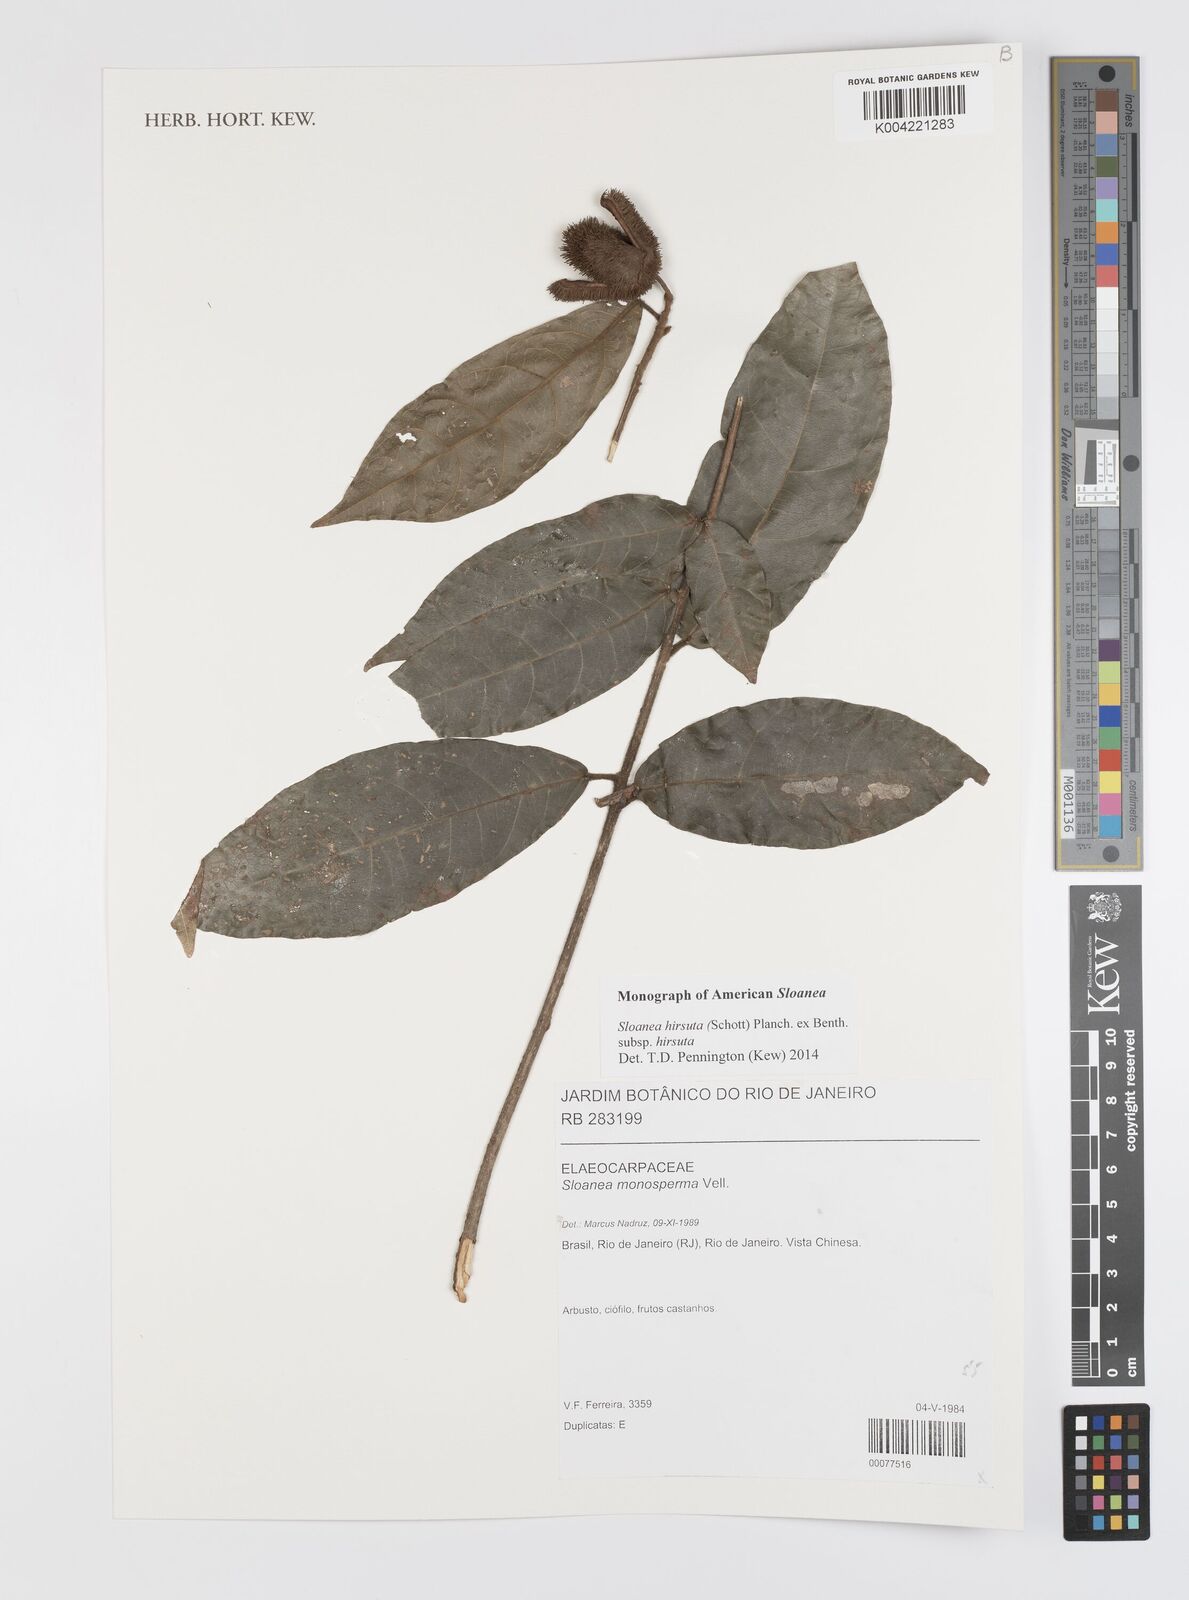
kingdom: Plantae
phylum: Tracheophyta
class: Magnoliopsida
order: Oxalidales
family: Elaeocarpaceae
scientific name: Elaeocarpaceae
